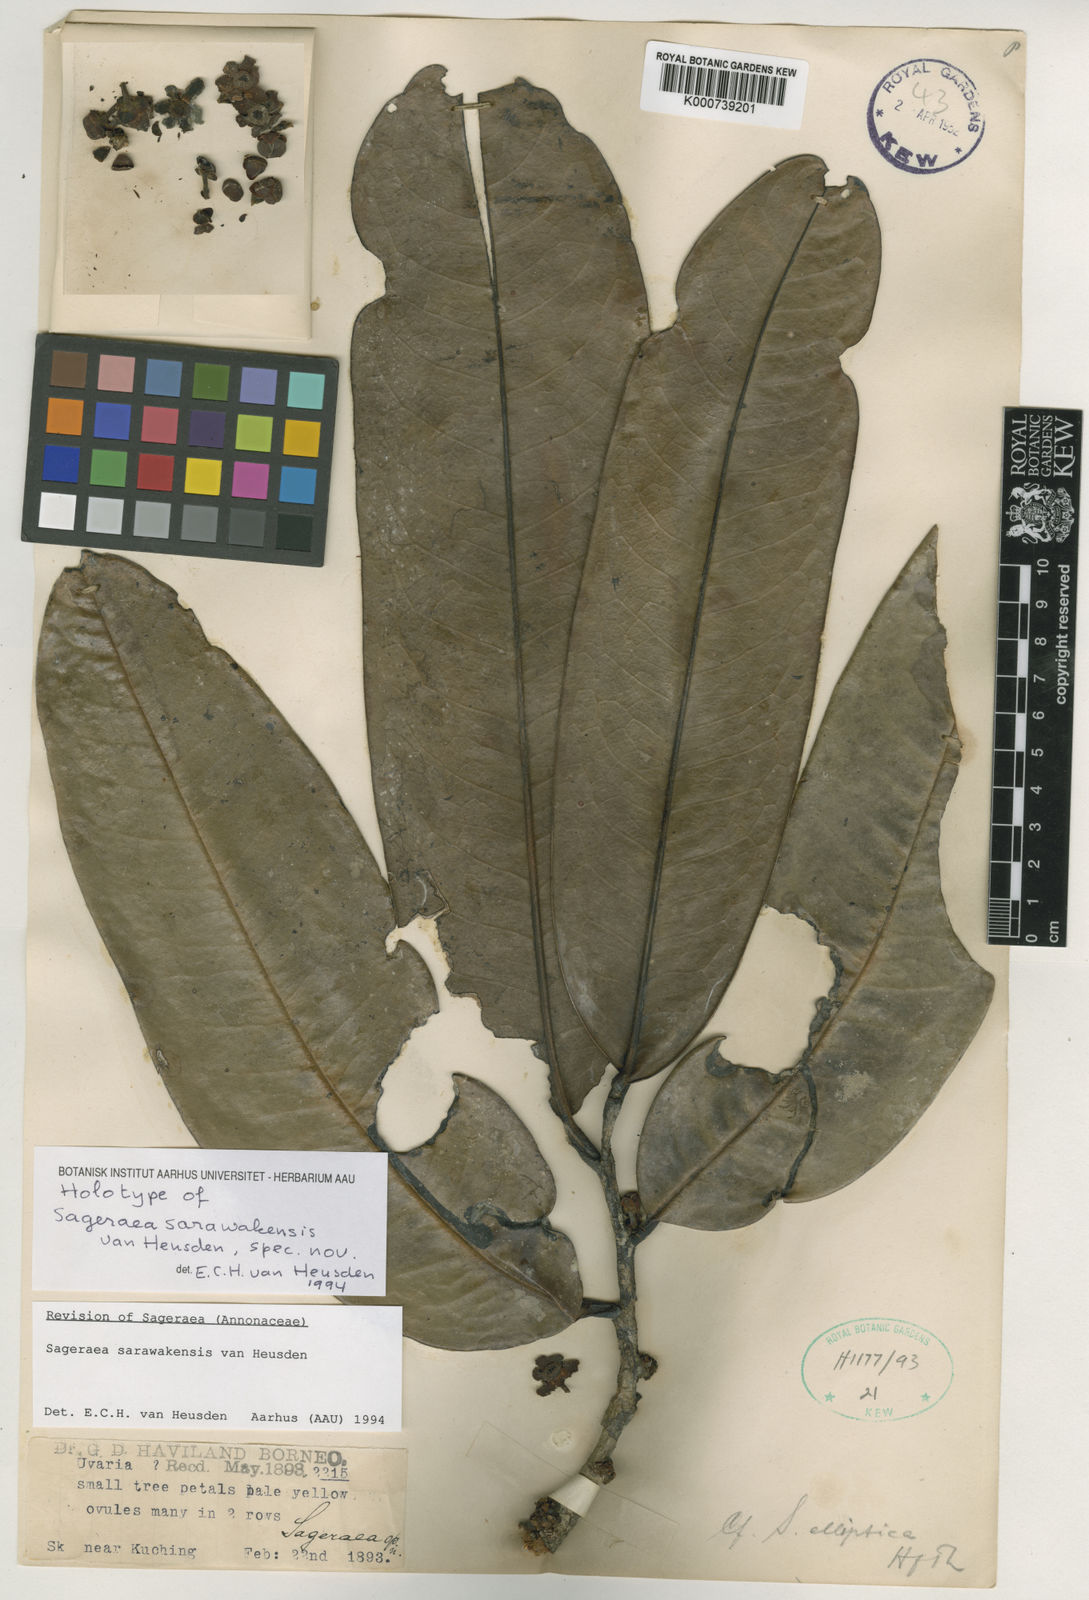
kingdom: Plantae
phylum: Tracheophyta
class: Magnoliopsida
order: Magnoliales
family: Annonaceae
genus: Sageraea
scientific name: Sageraea
